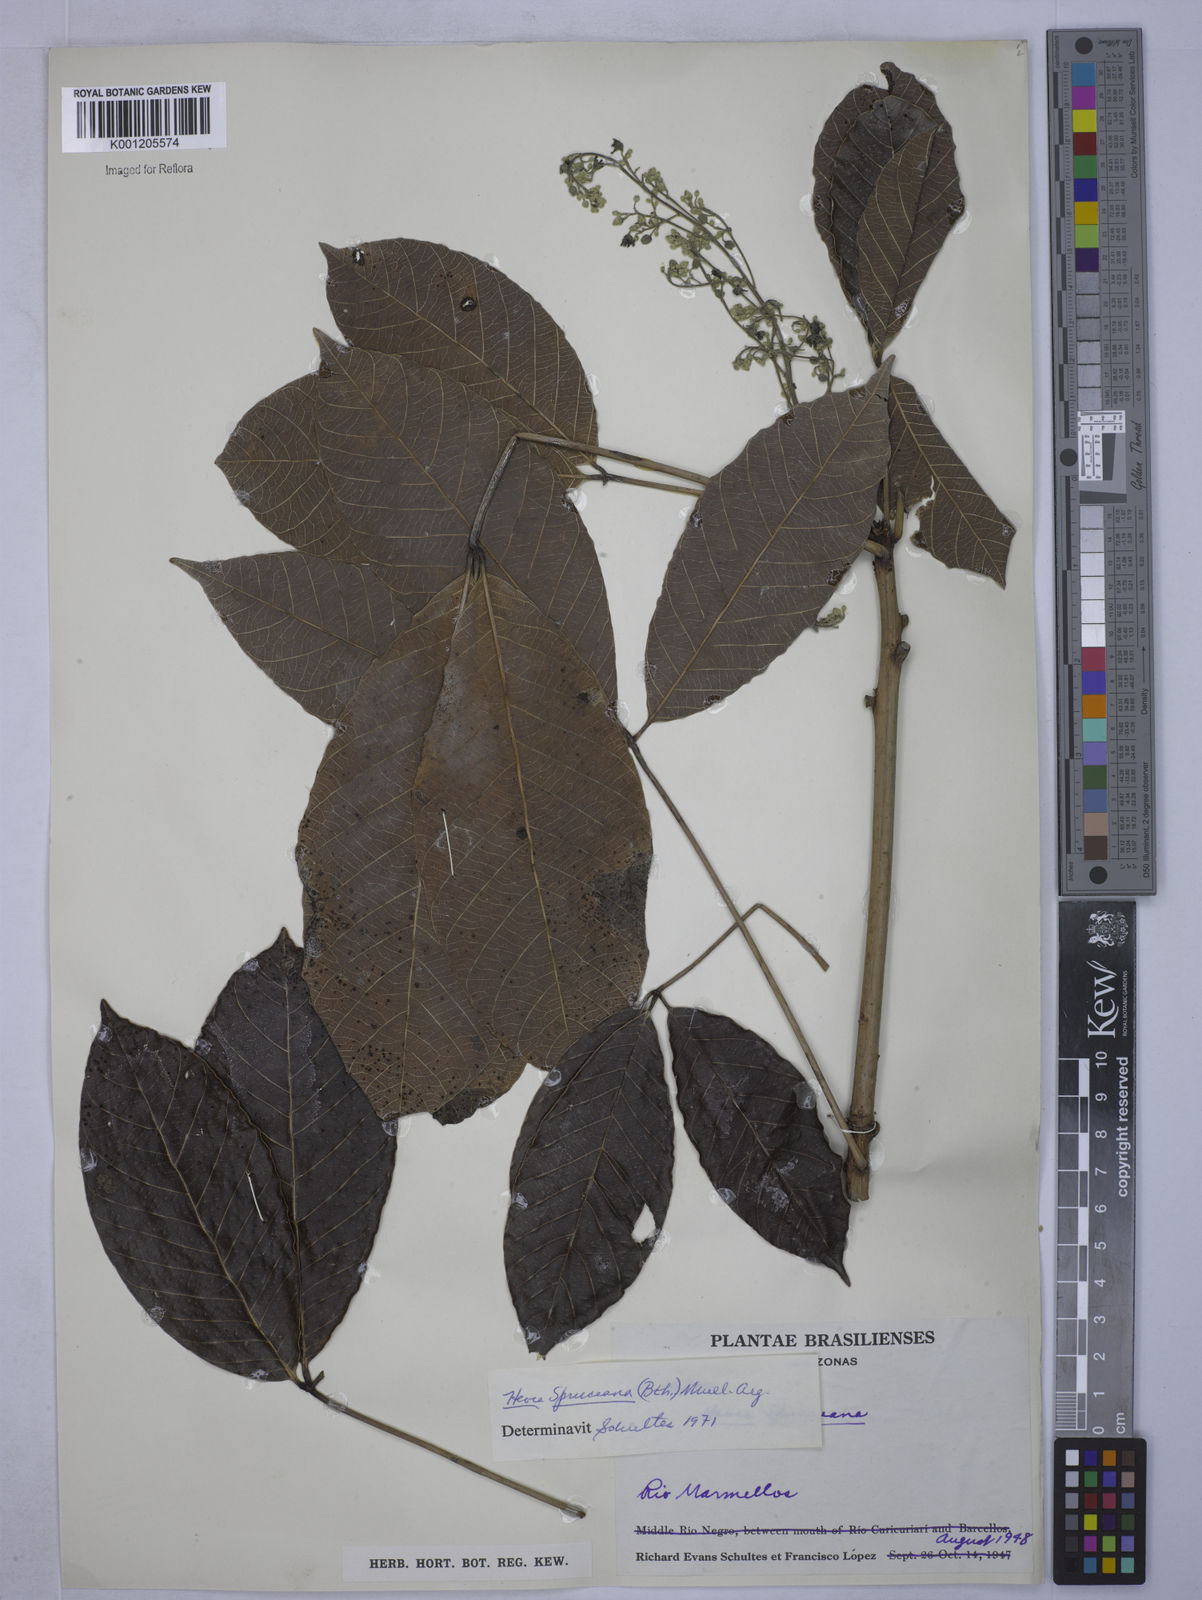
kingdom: Plantae
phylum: Tracheophyta
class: Magnoliopsida
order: Malpighiales
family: Euphorbiaceae
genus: Hevea
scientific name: Hevea
